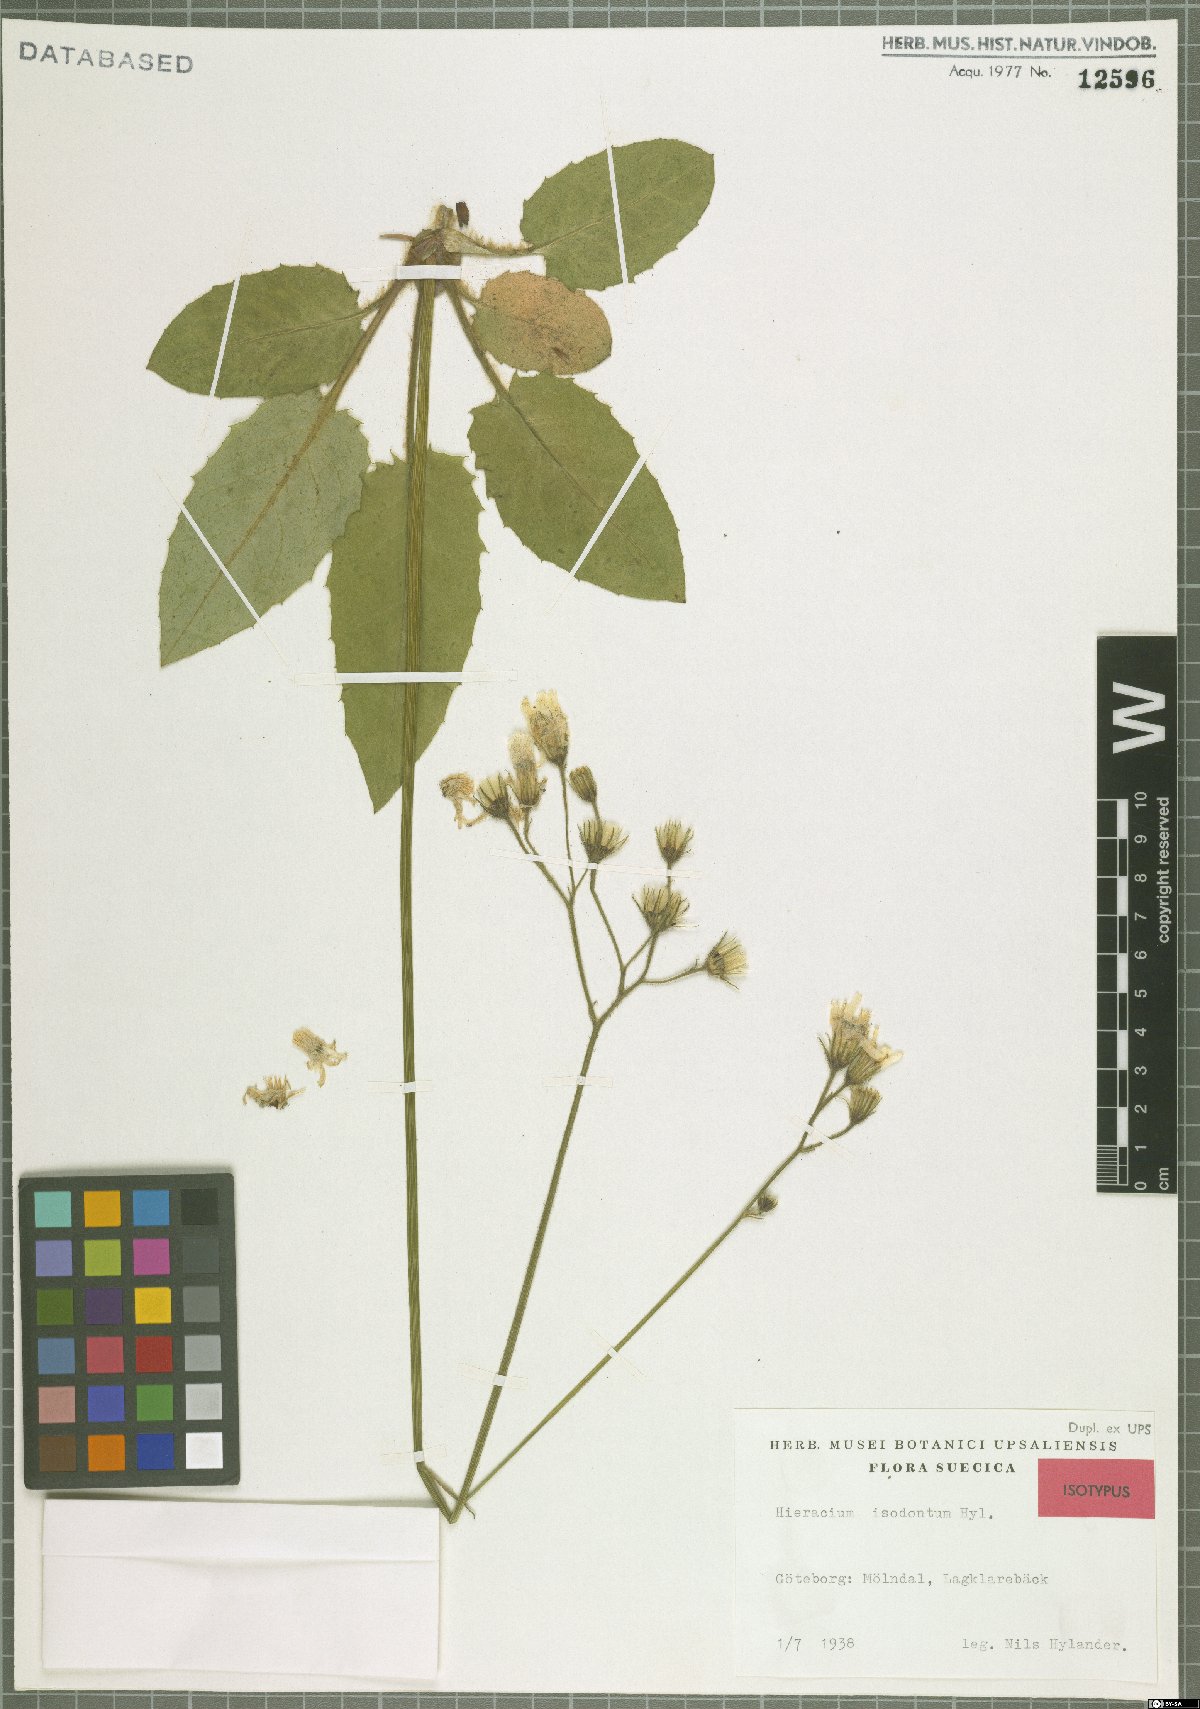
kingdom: Plantae
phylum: Tracheophyta
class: Magnoliopsida
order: Asterales
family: Asteraceae
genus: Hieracium
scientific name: Hieracium murorum
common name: Wall hawkweed
